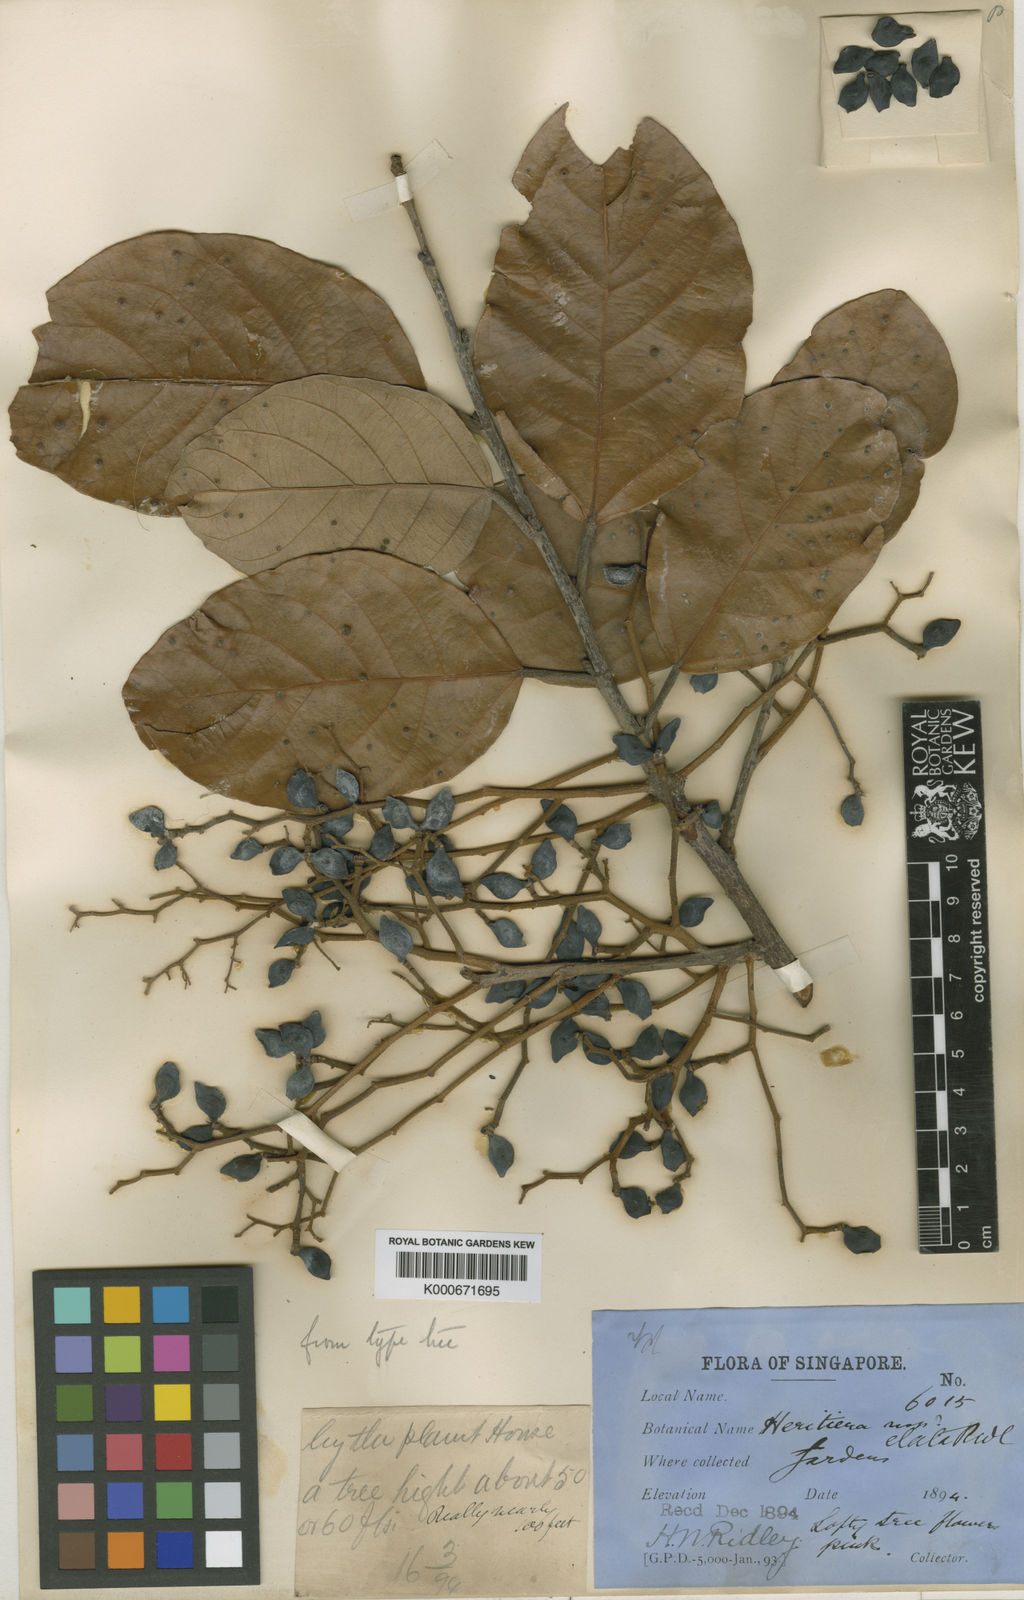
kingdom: Plantae
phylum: Tracheophyta
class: Magnoliopsida
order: Malvales
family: Malvaceae
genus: Heritiera
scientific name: Heritiera elata
